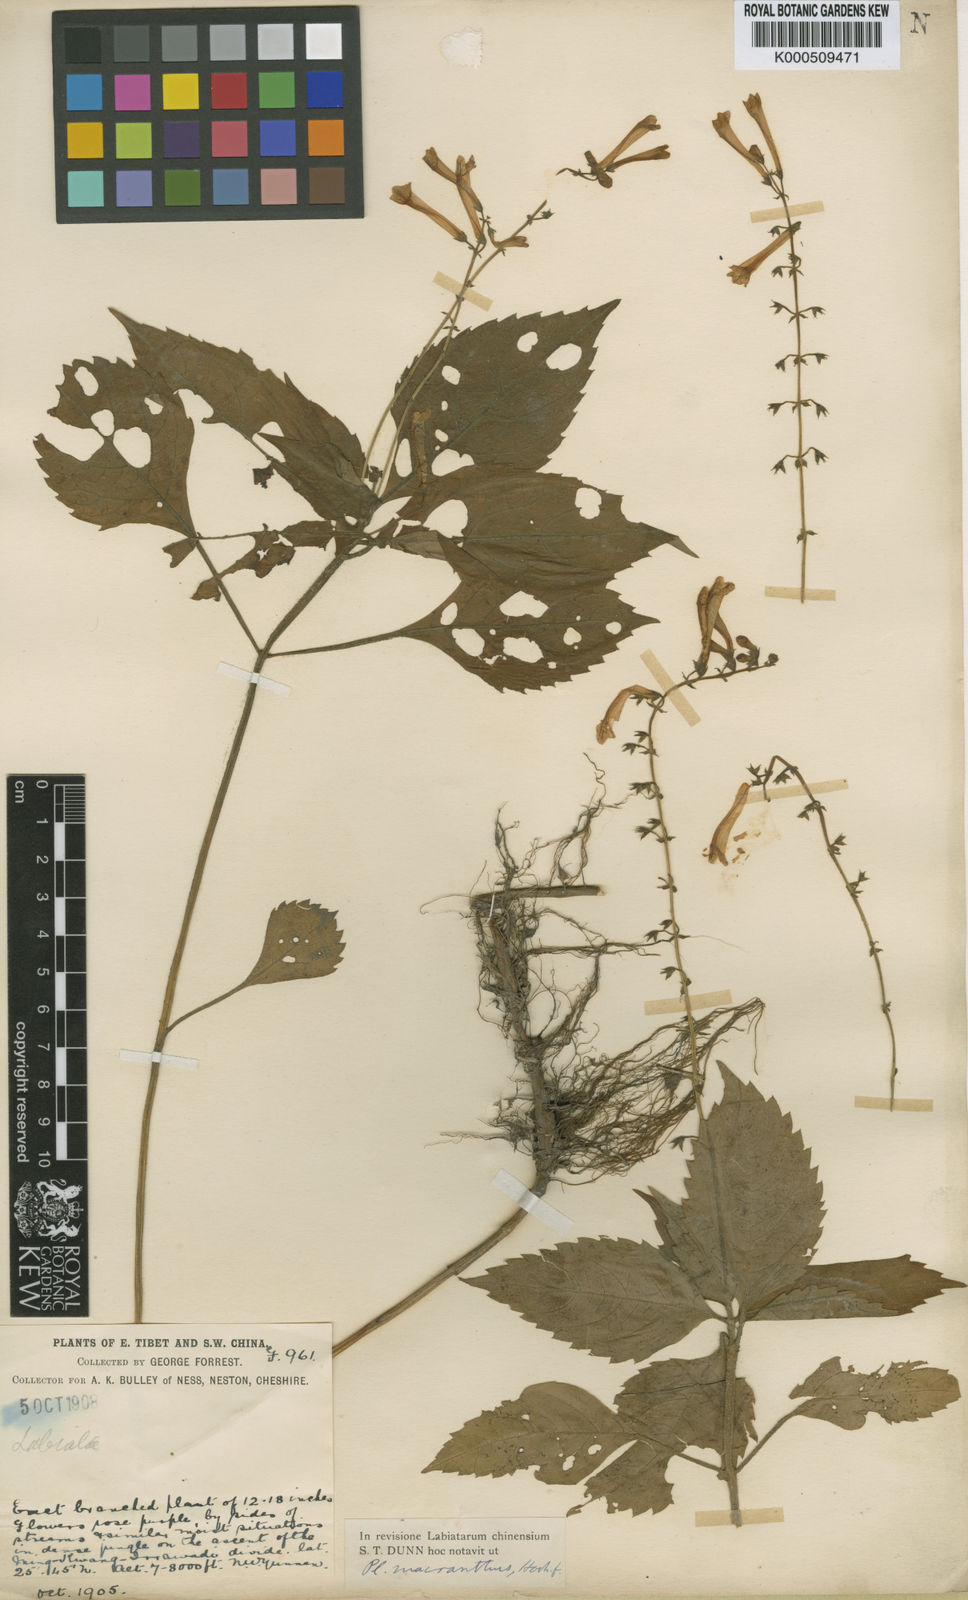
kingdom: Plantae
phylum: Tracheophyta
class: Magnoliopsida
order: Lamiales
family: Lamiaceae
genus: Siphocranion
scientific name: Siphocranion macranthum
